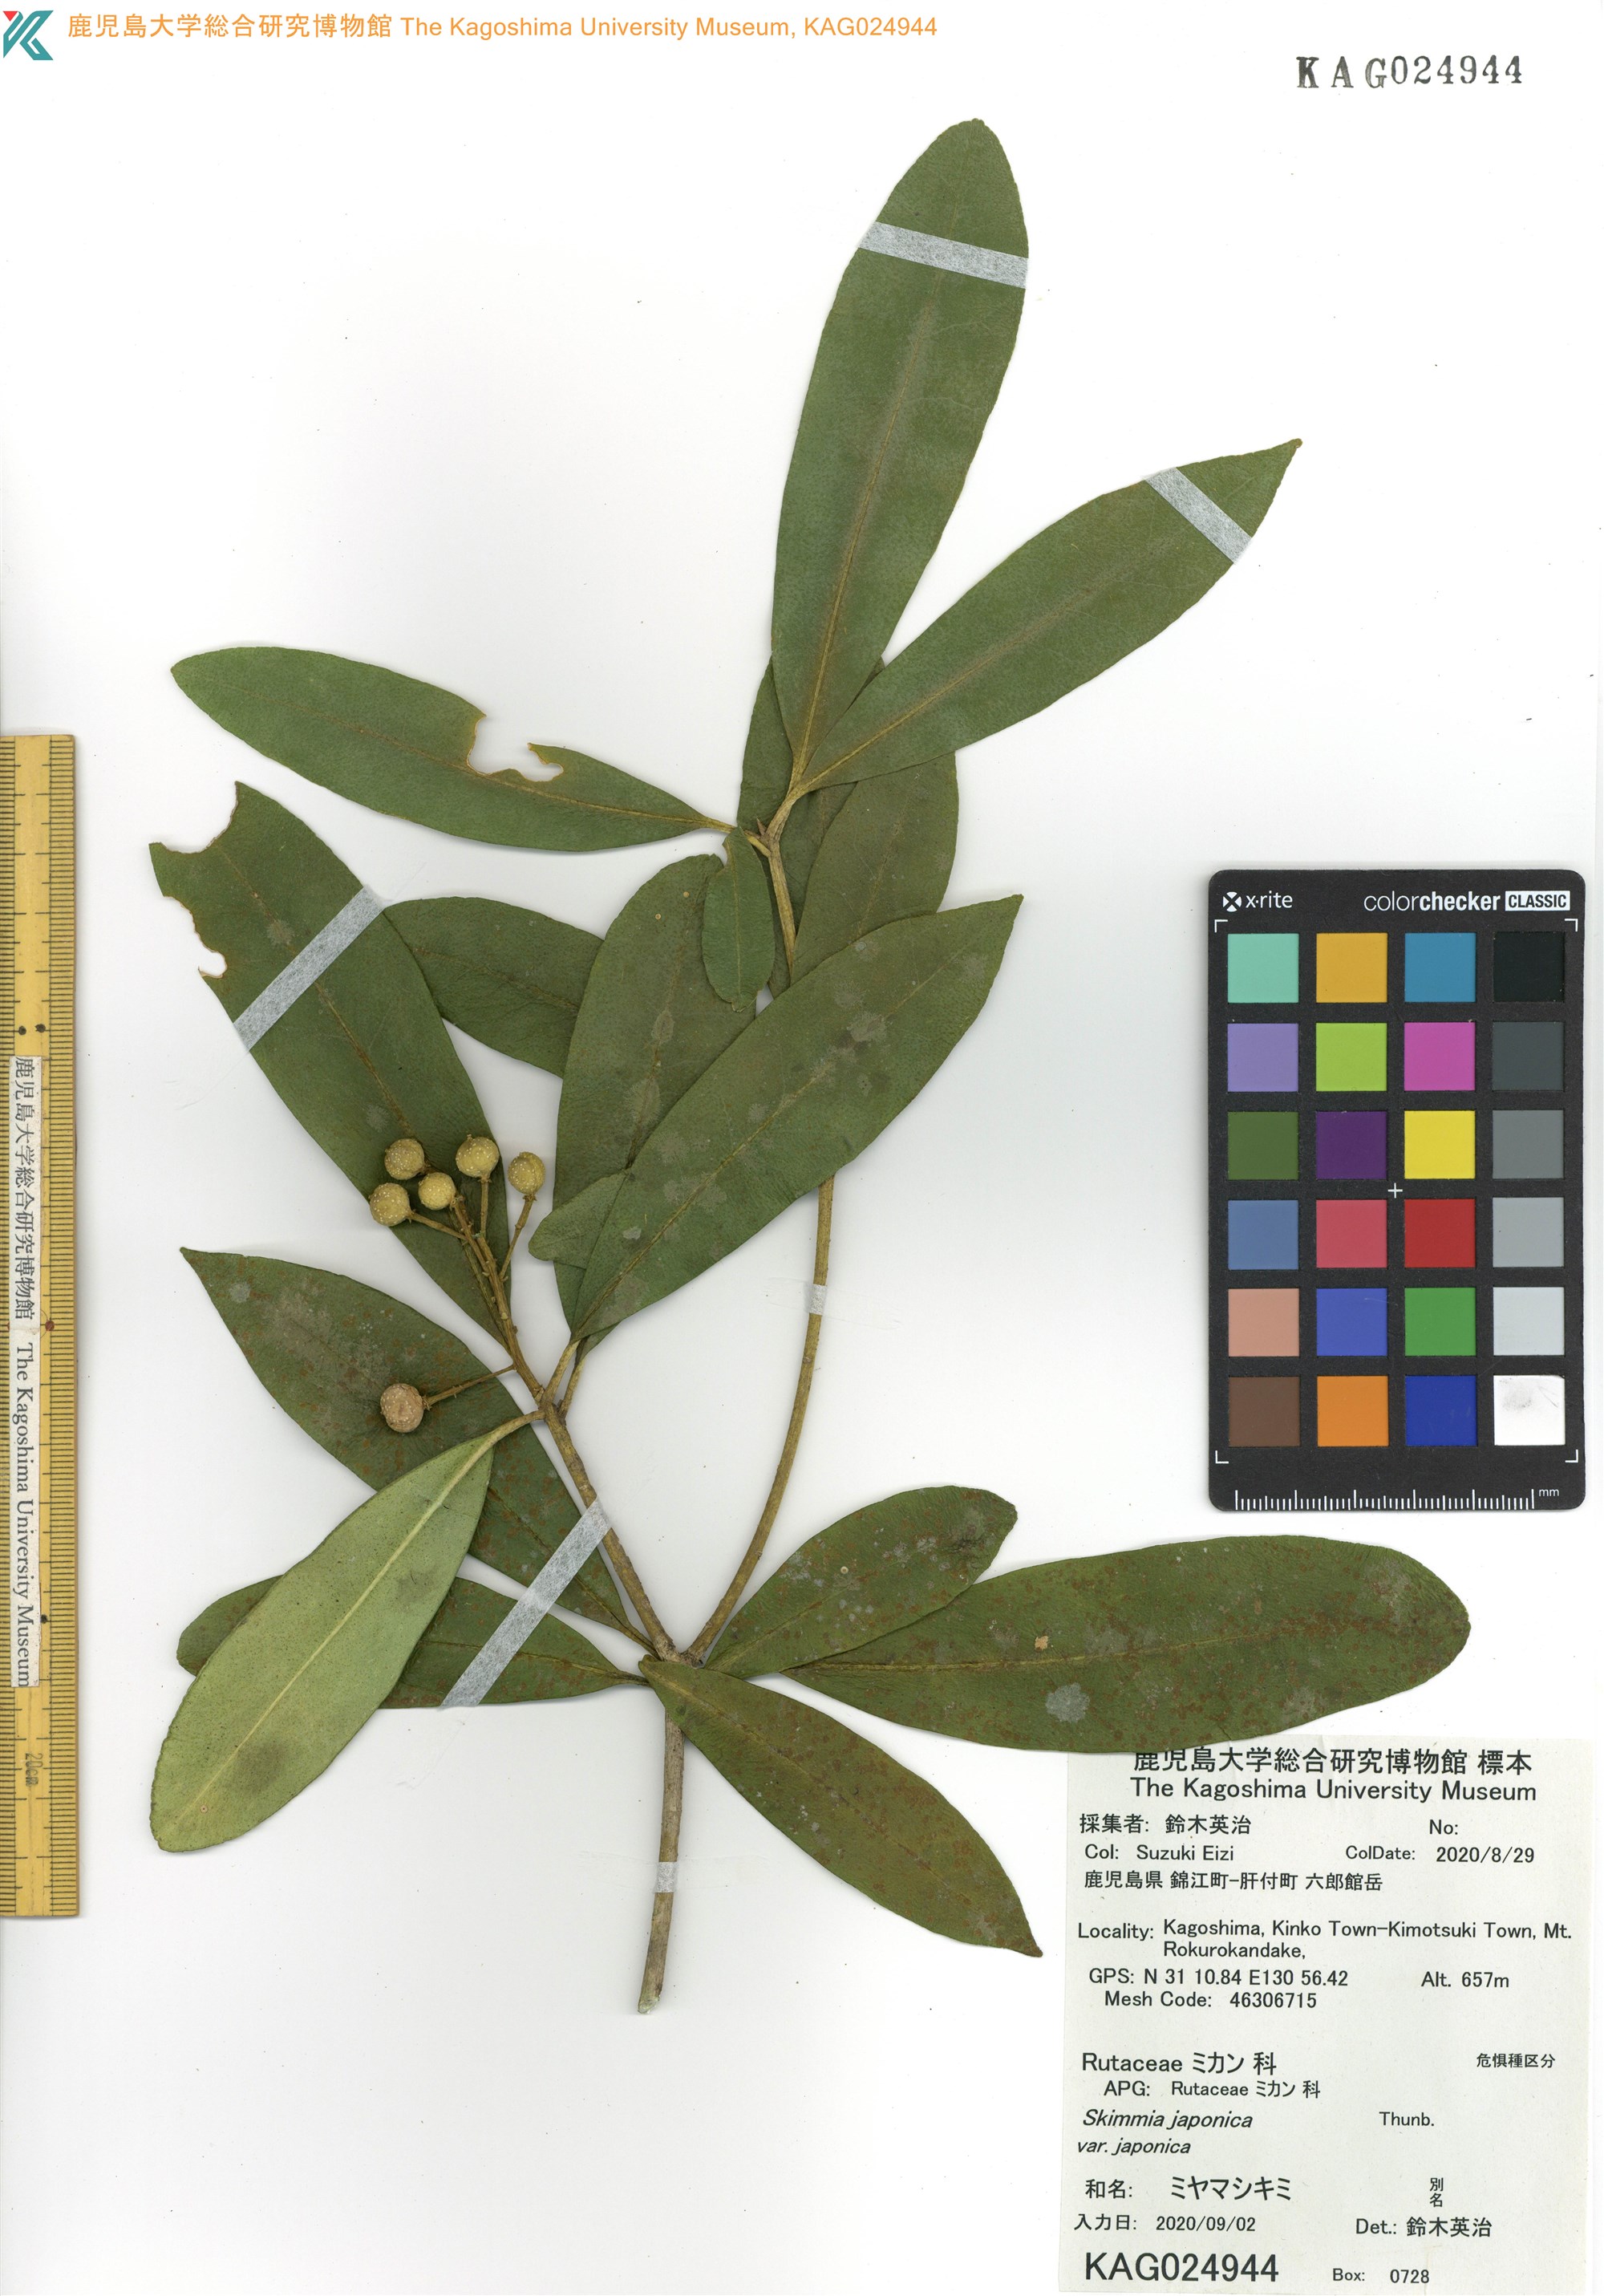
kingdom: Plantae
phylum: Tracheophyta
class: Magnoliopsida
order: Sapindales
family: Rutaceae
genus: Skimmia
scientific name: Skimmia japonica
